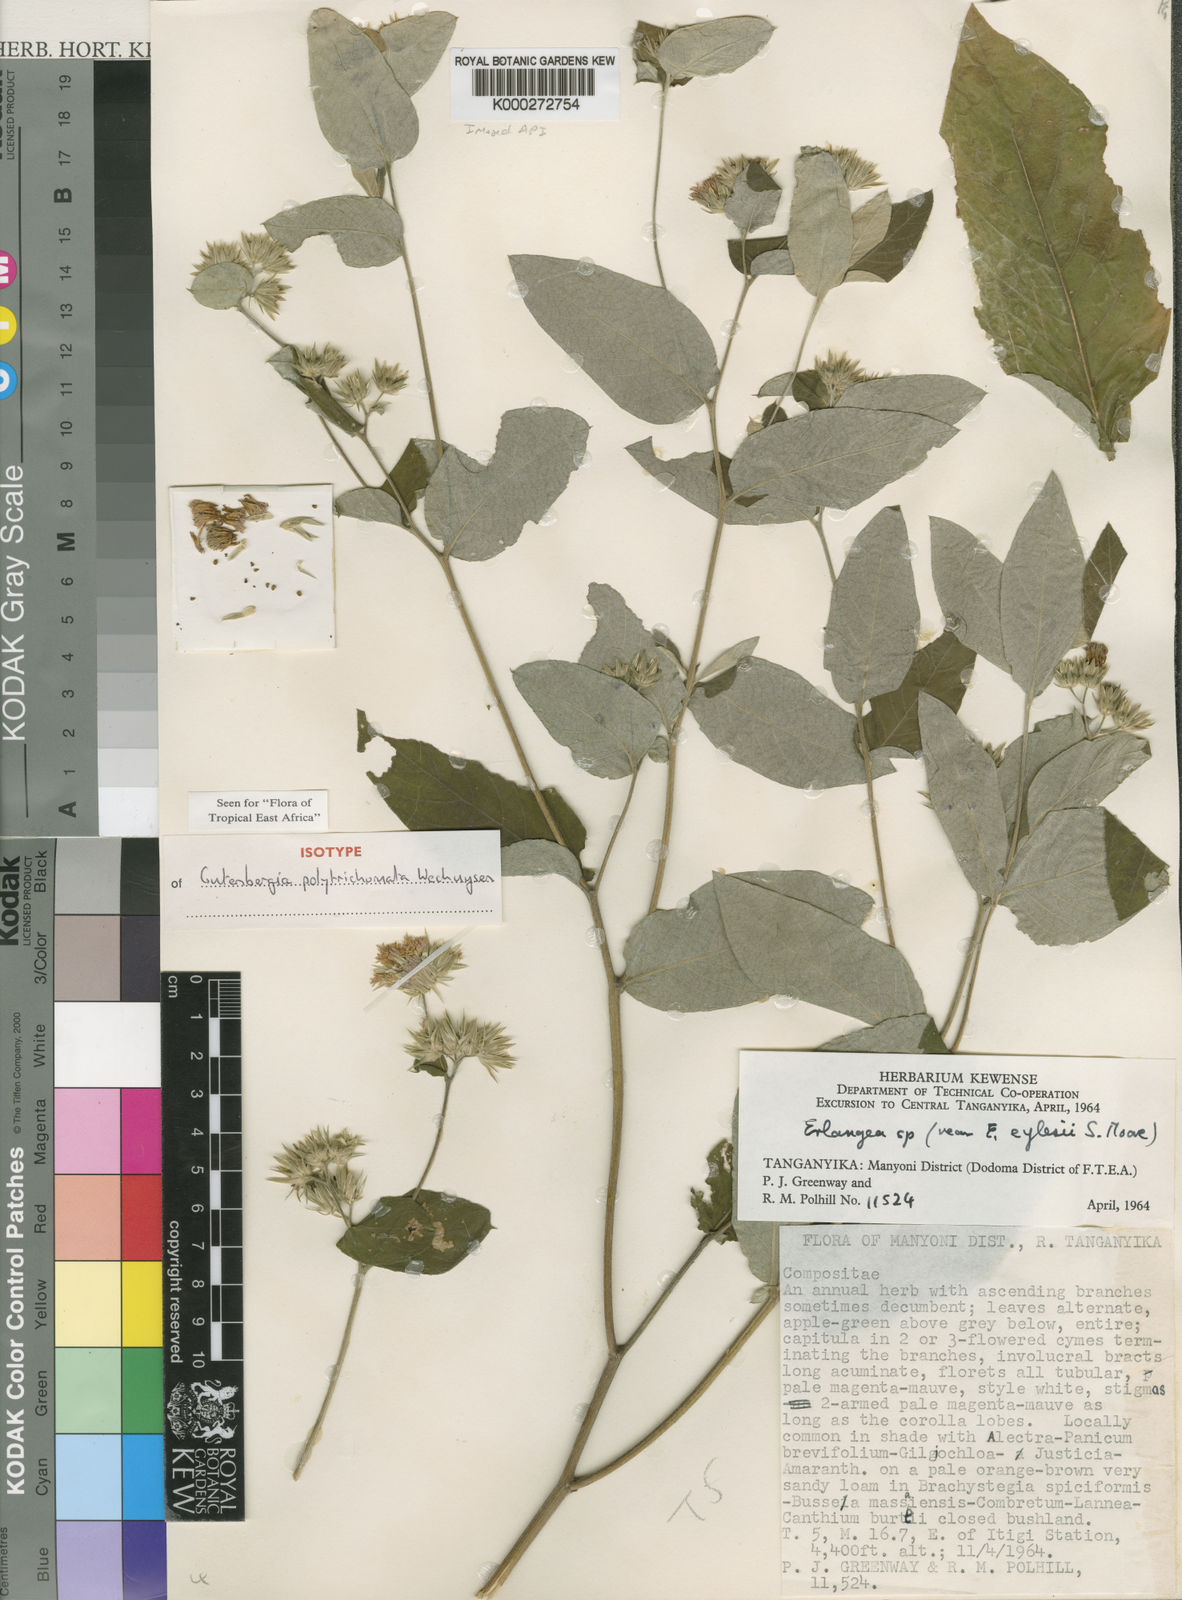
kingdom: Plantae
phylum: Tracheophyta
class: Magnoliopsida
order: Asterales
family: Asteraceae
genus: Cyanthillium
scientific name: Cyanthillium polytrichomata
